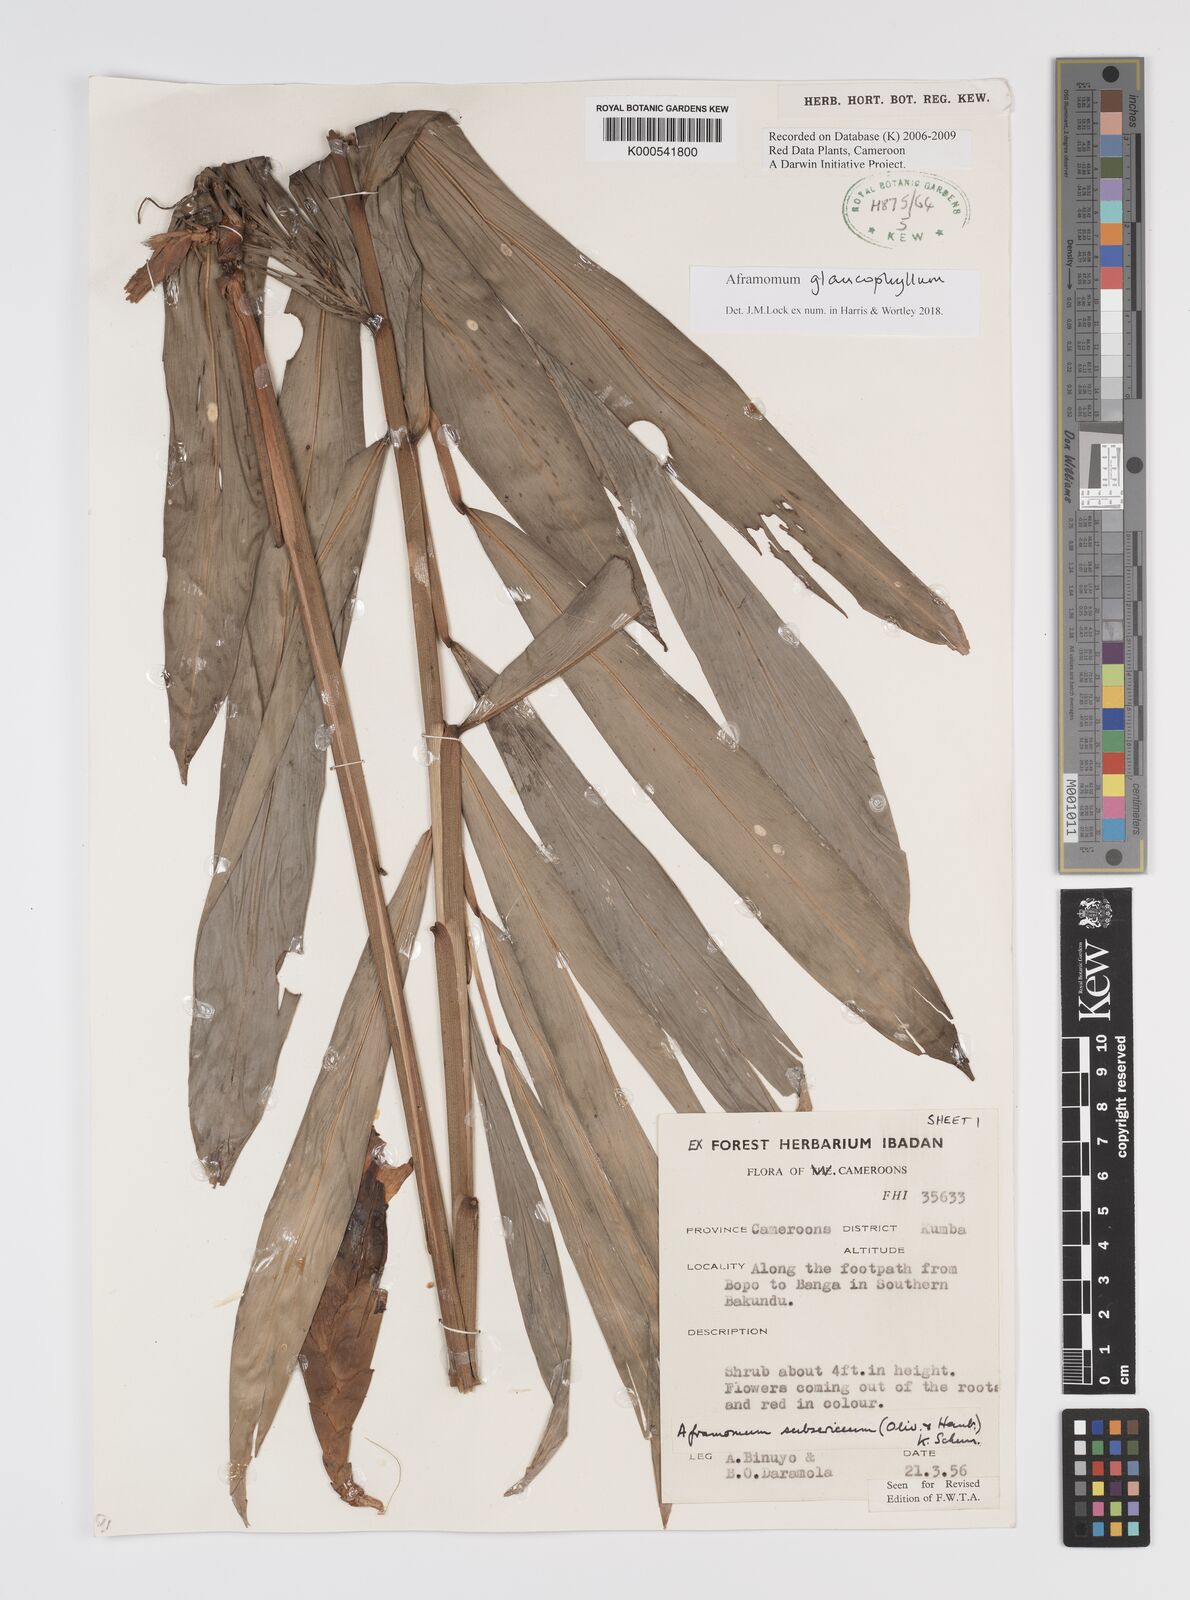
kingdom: Plantae
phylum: Tracheophyta
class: Liliopsida
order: Zingiberales
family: Zingiberaceae
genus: Aframomum
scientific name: Aframomum subsericeum
